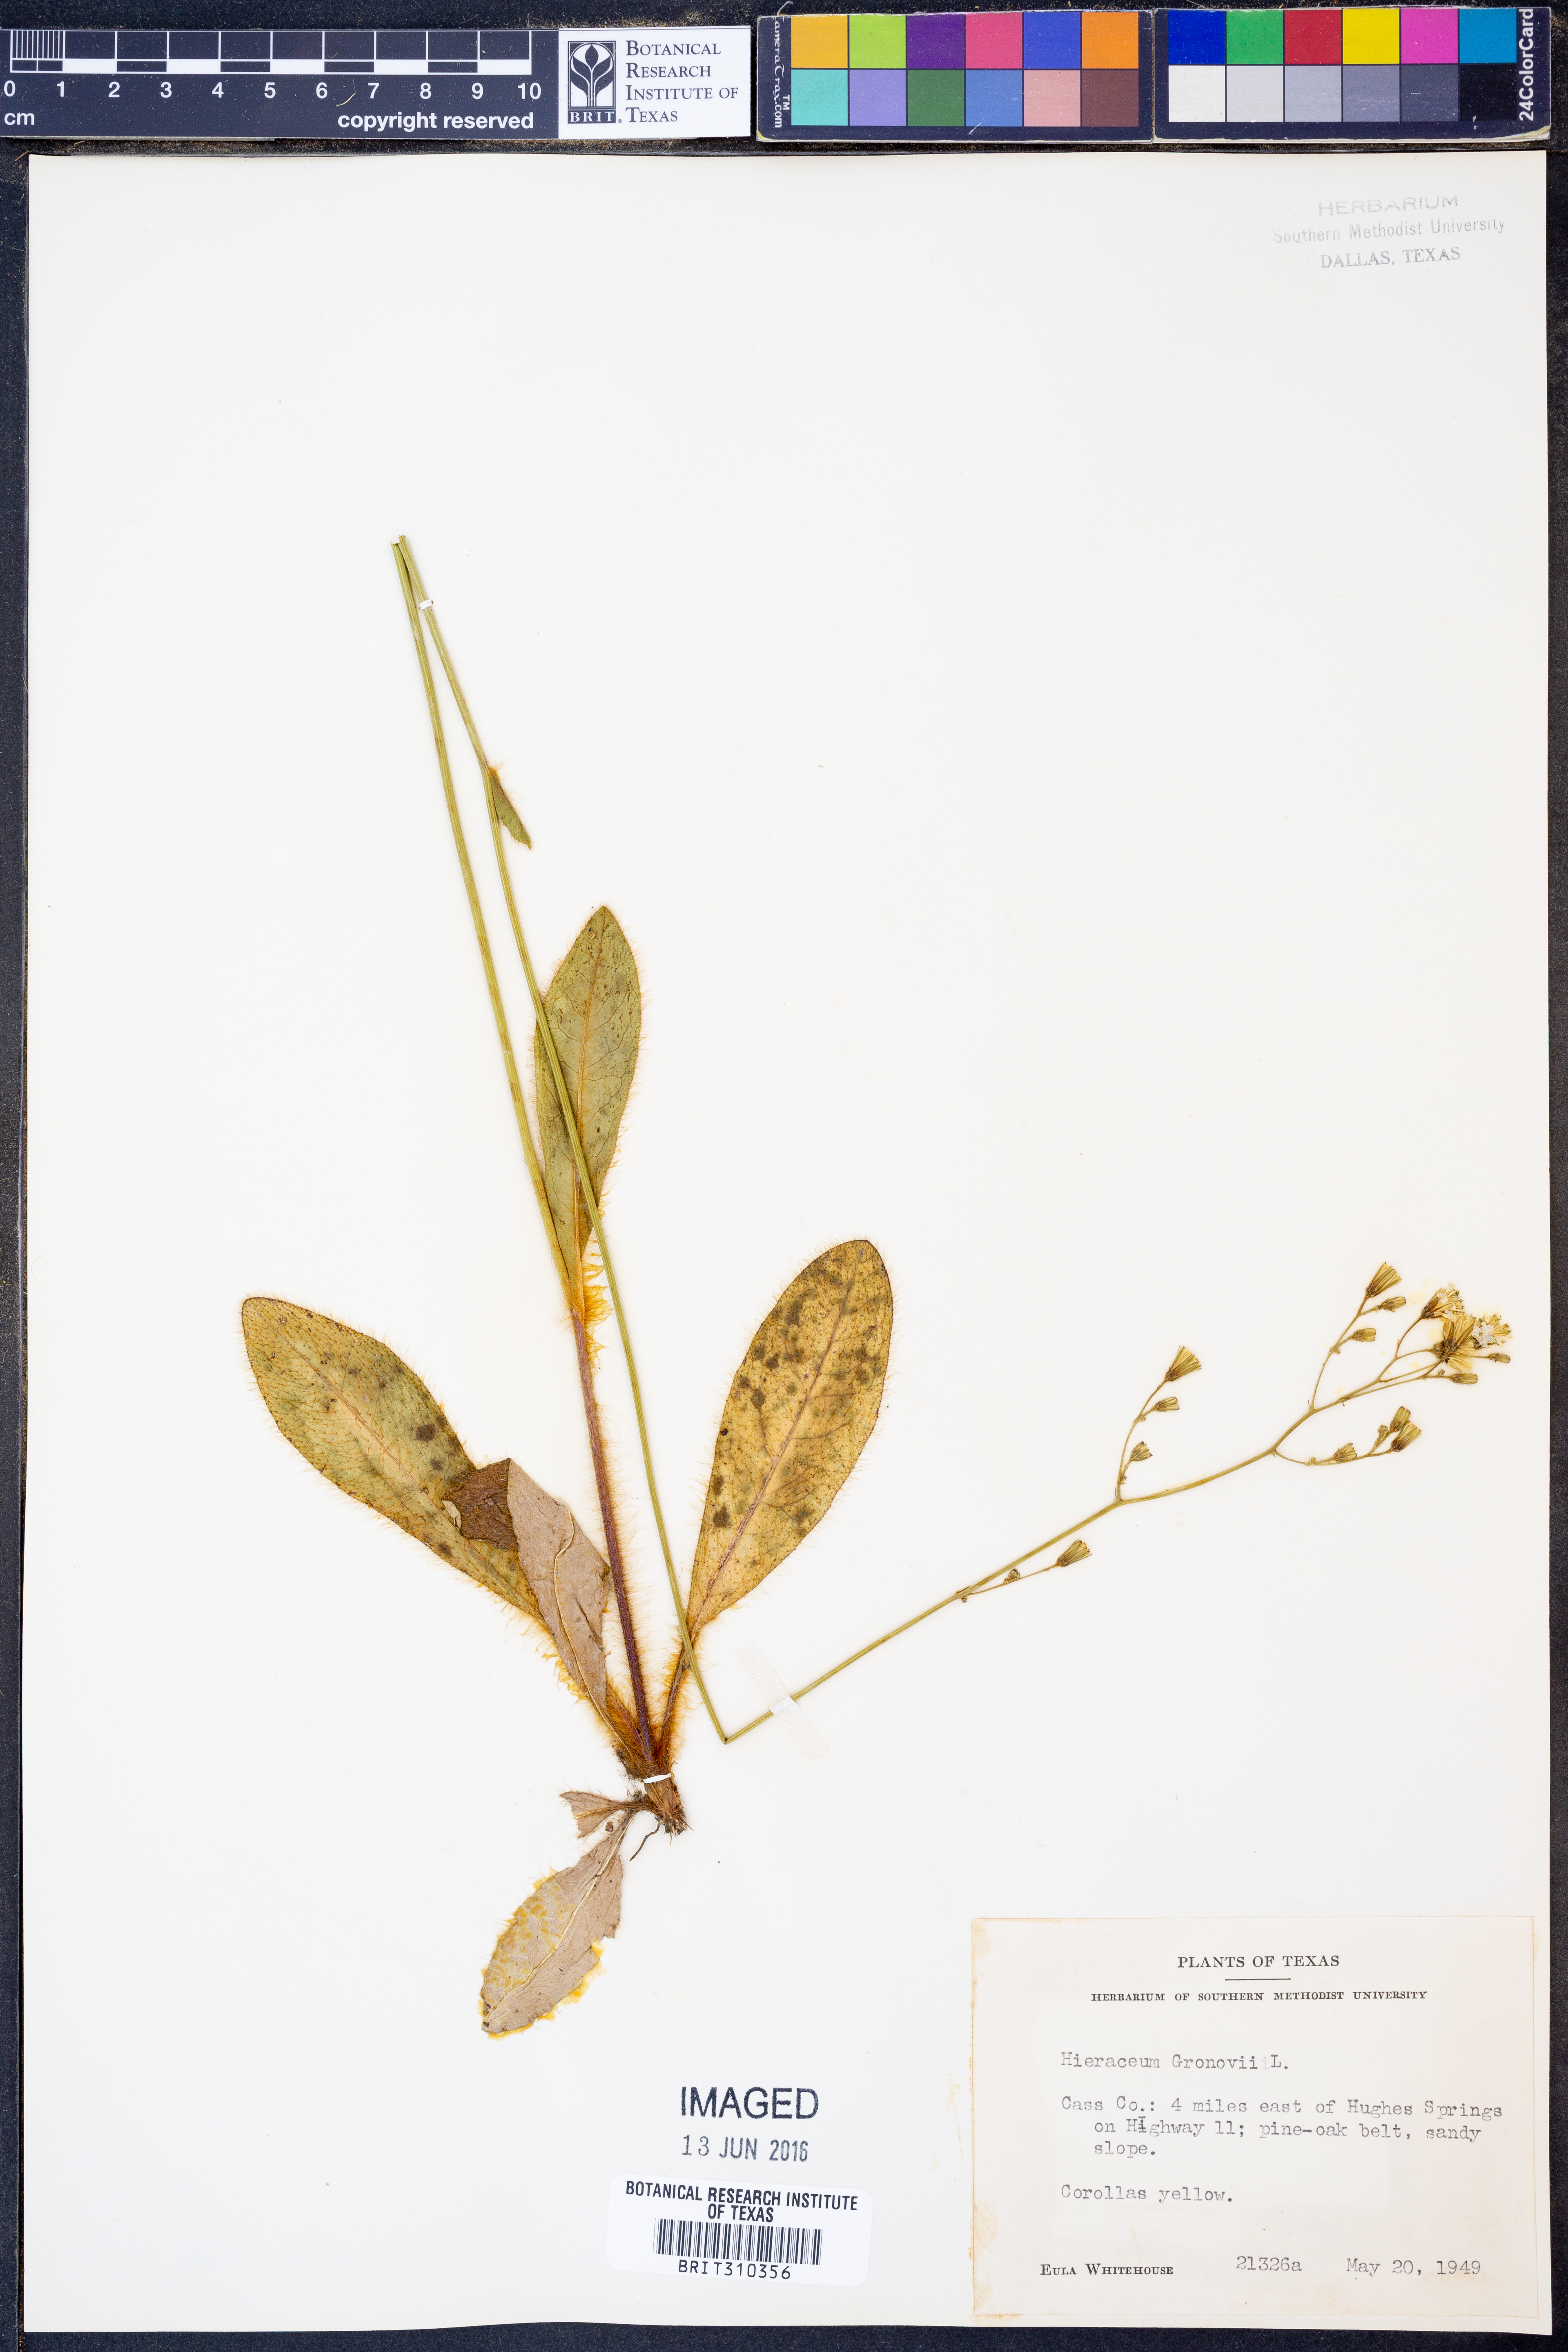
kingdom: Plantae
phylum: Tracheophyta
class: Magnoliopsida
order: Asterales
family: Asteraceae
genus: Hieracium
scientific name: Hieracium gronovii
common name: Beaked hawkweed
